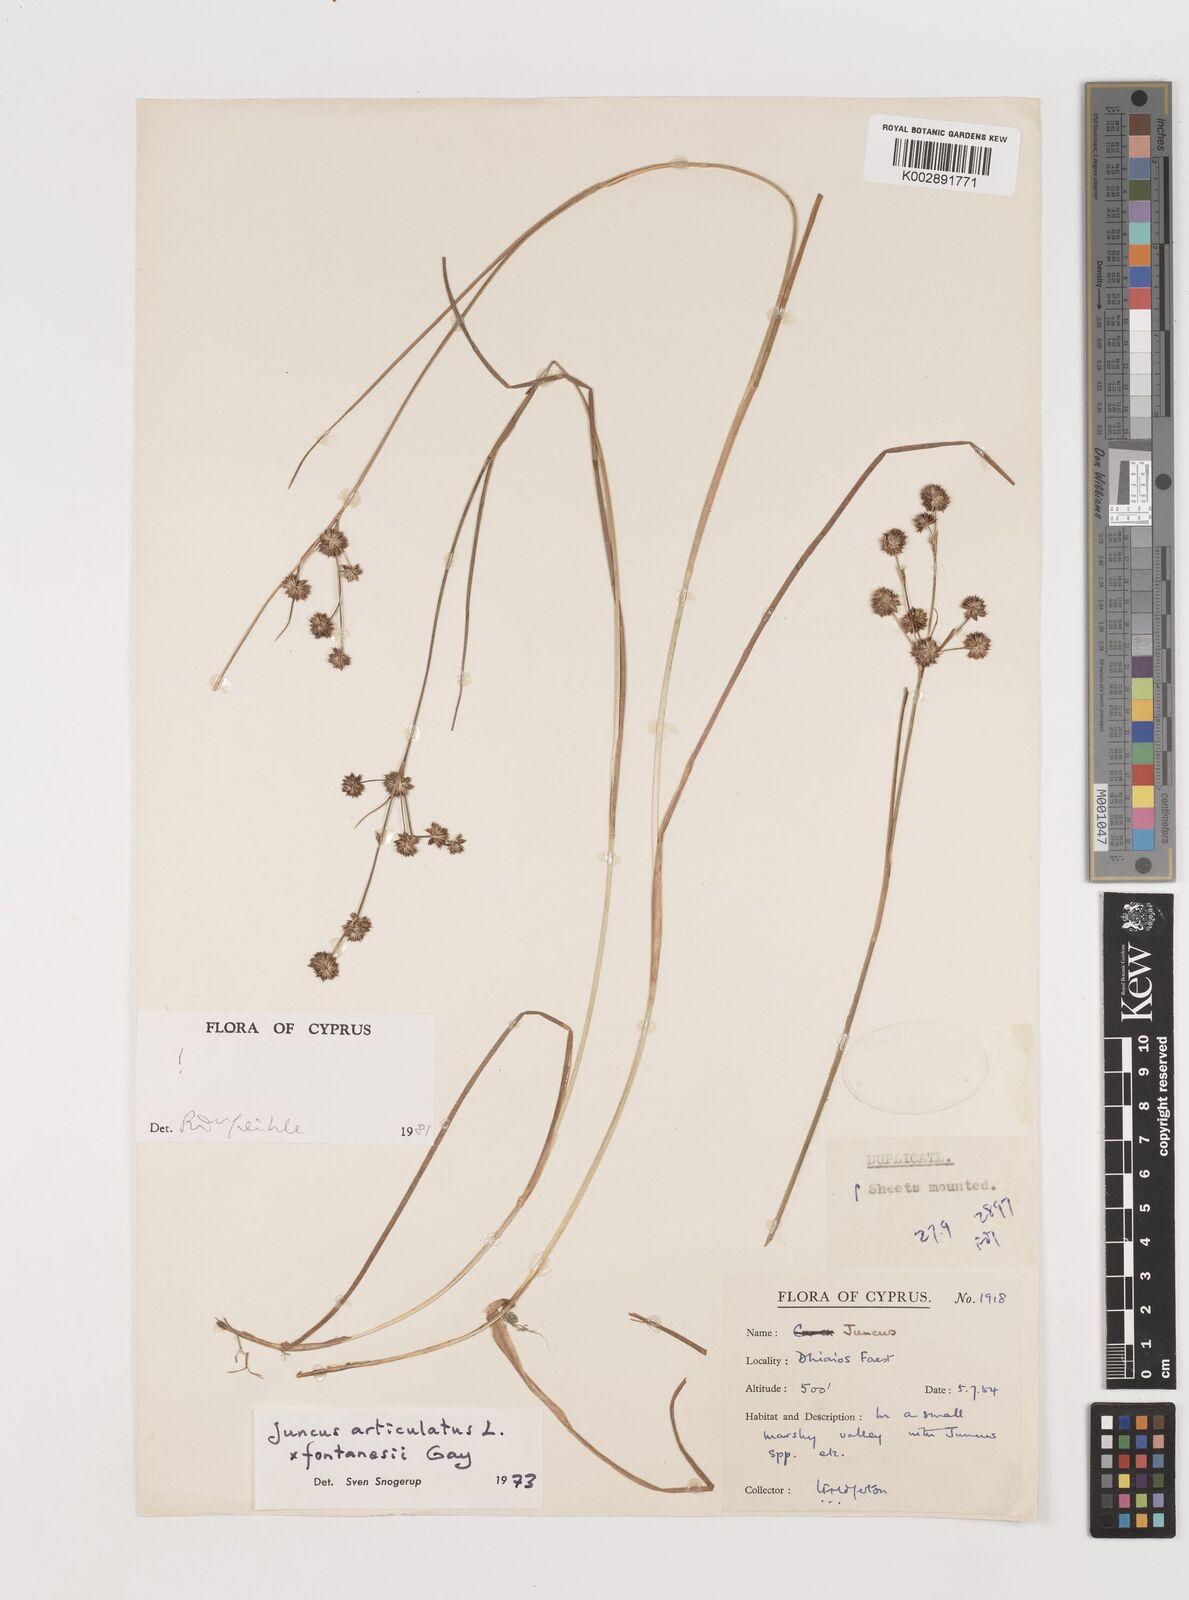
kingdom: Plantae
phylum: Tracheophyta
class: Liliopsida
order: Poales
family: Juncaceae
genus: Juncus
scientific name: Juncus articulatus
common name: Jointed rush
